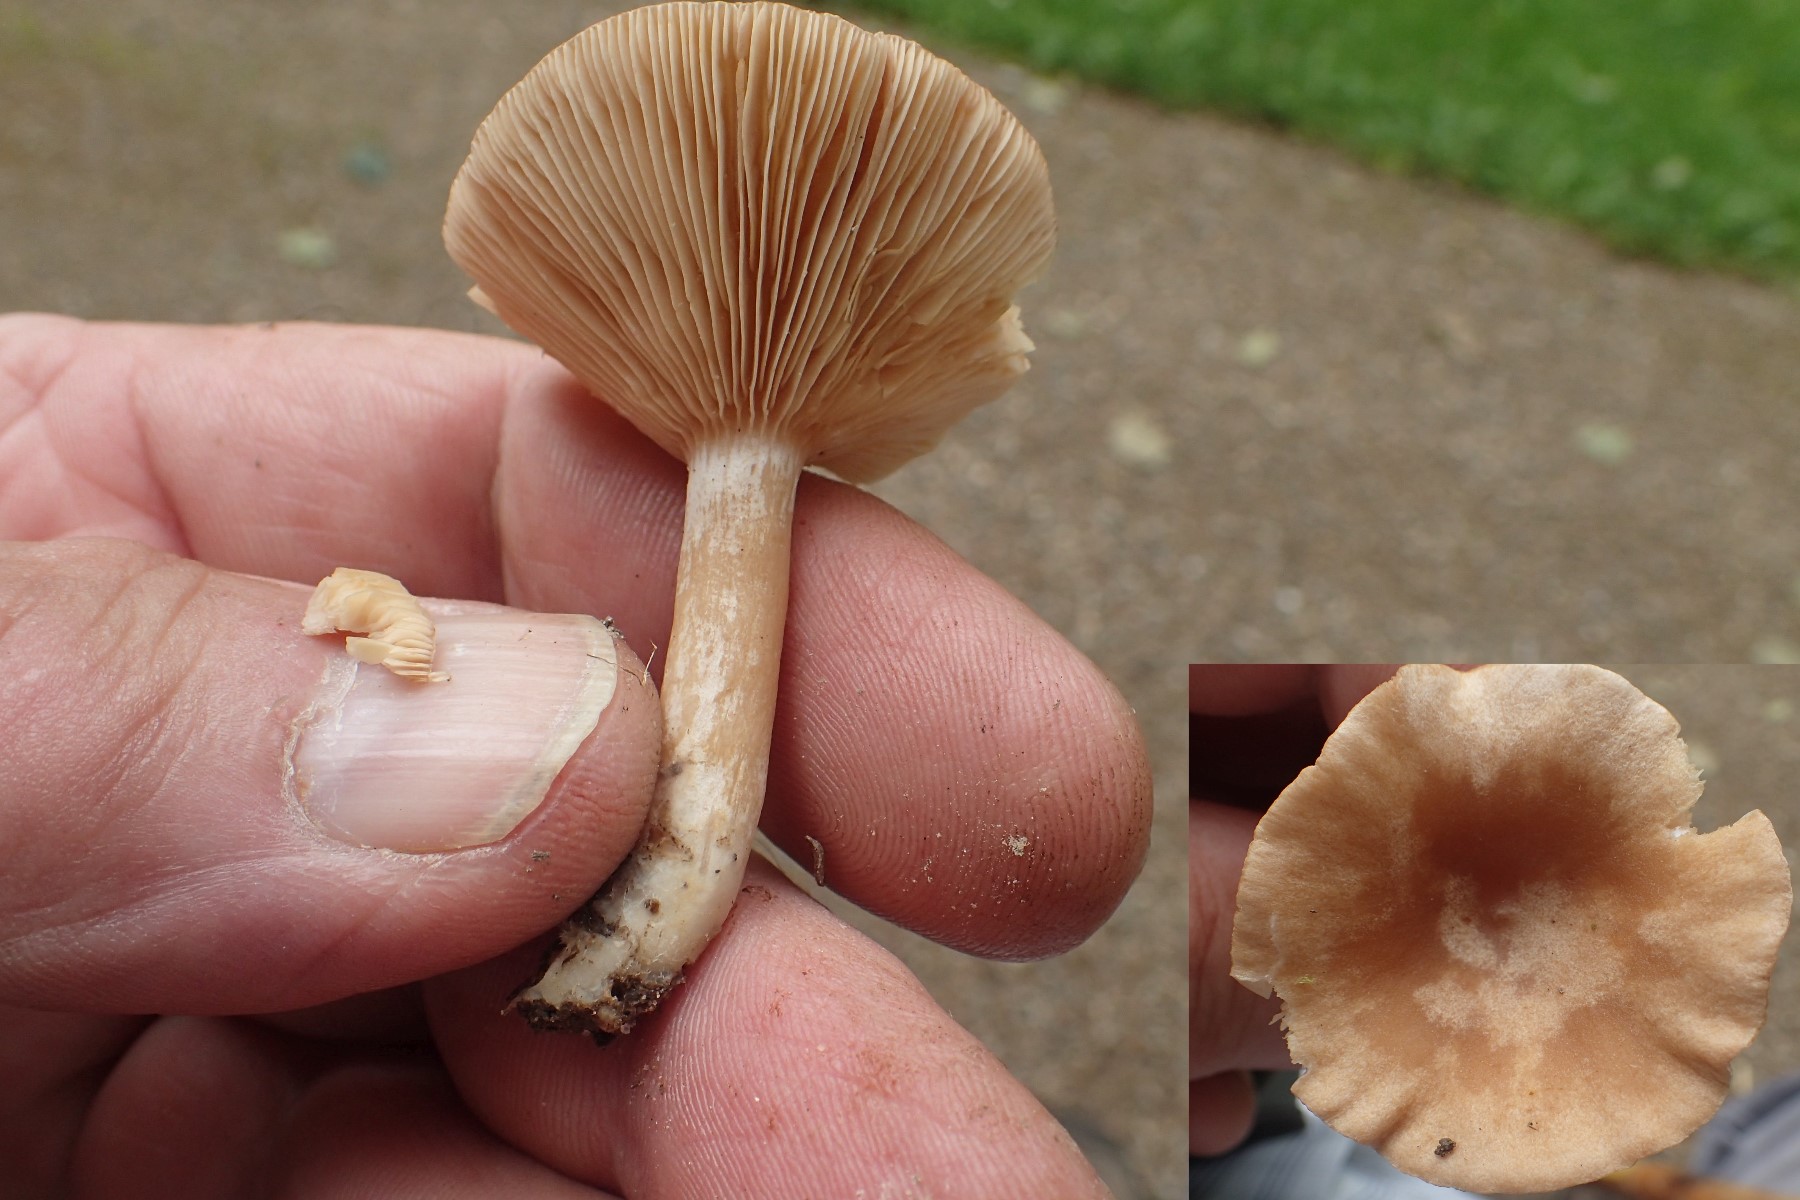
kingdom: Fungi
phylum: Basidiomycota
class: Agaricomycetes
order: Russulales
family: Russulaceae
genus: Lactarius
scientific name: Lactarius glyciosmus
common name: kokos-mælkehat
